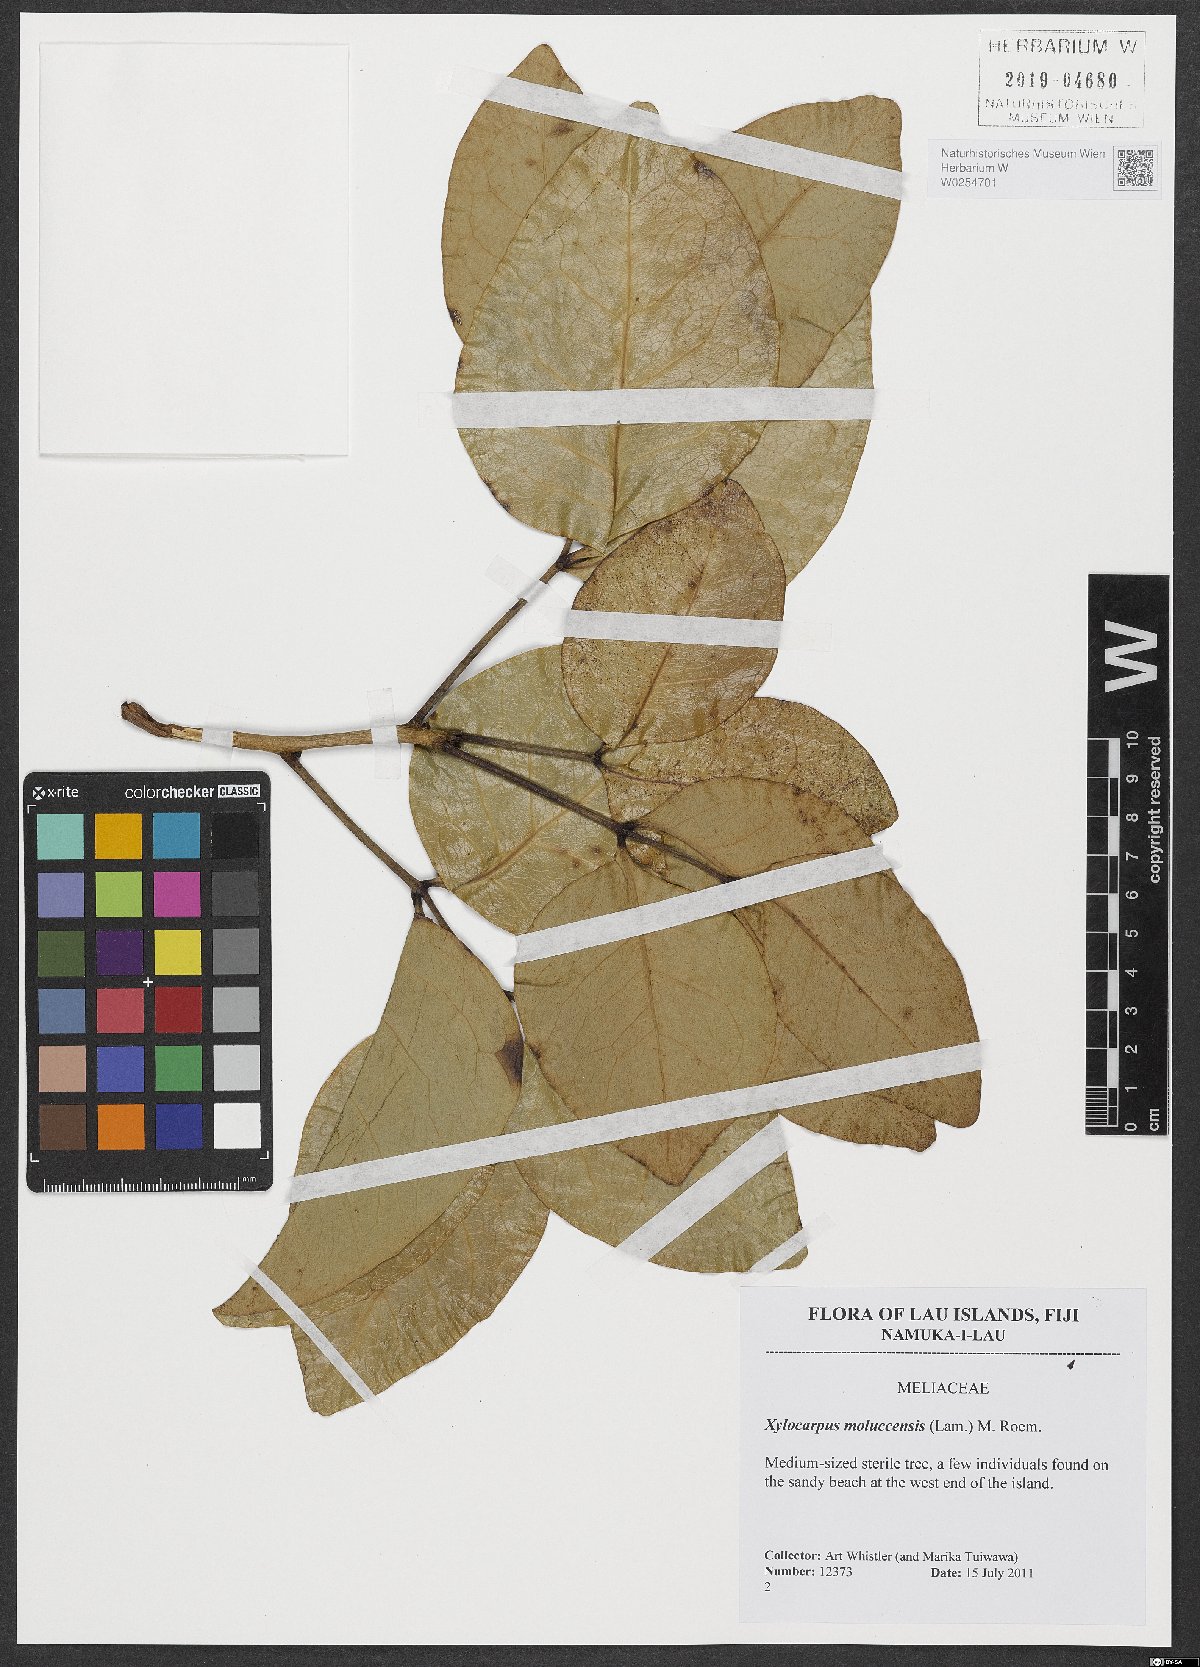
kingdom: Plantae
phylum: Tracheophyta
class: Magnoliopsida
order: Sapindales
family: Meliaceae
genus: Xylocarpus
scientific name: Xylocarpus moluccensis
